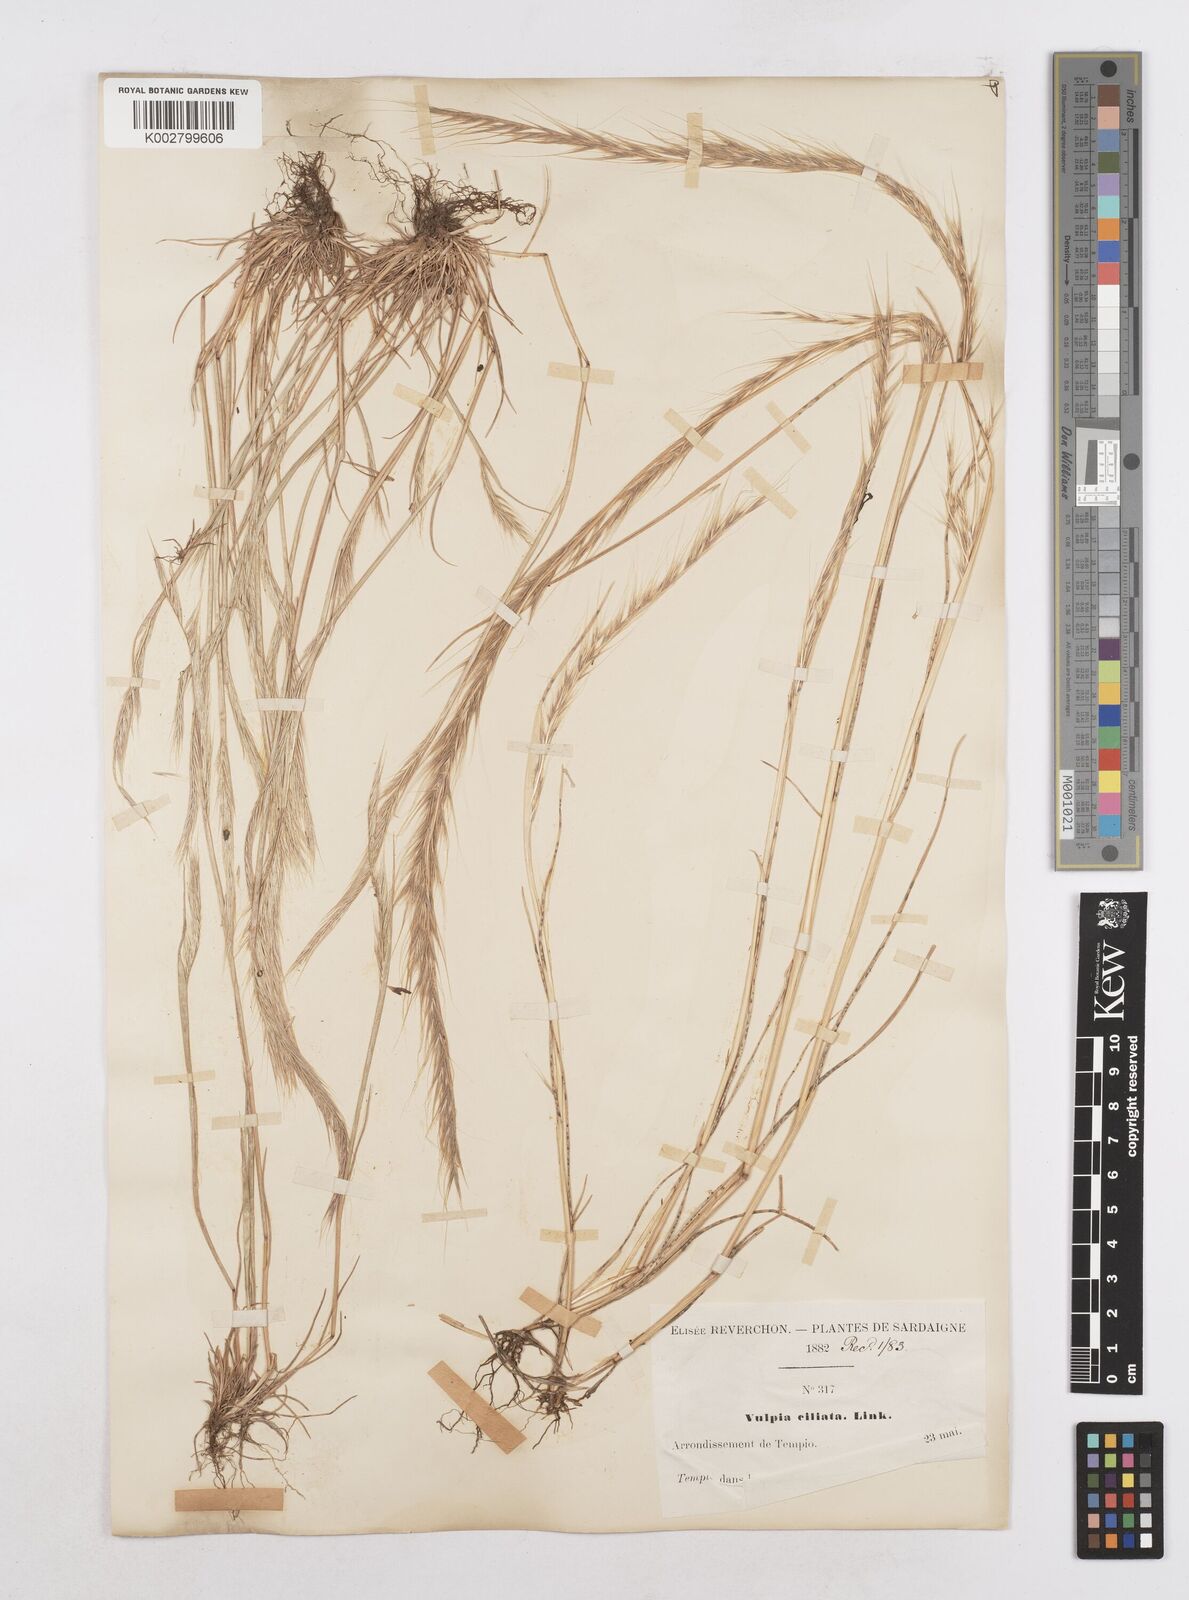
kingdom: Plantae
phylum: Tracheophyta
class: Liliopsida
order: Poales
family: Poaceae
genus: Festuca
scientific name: Festuca
